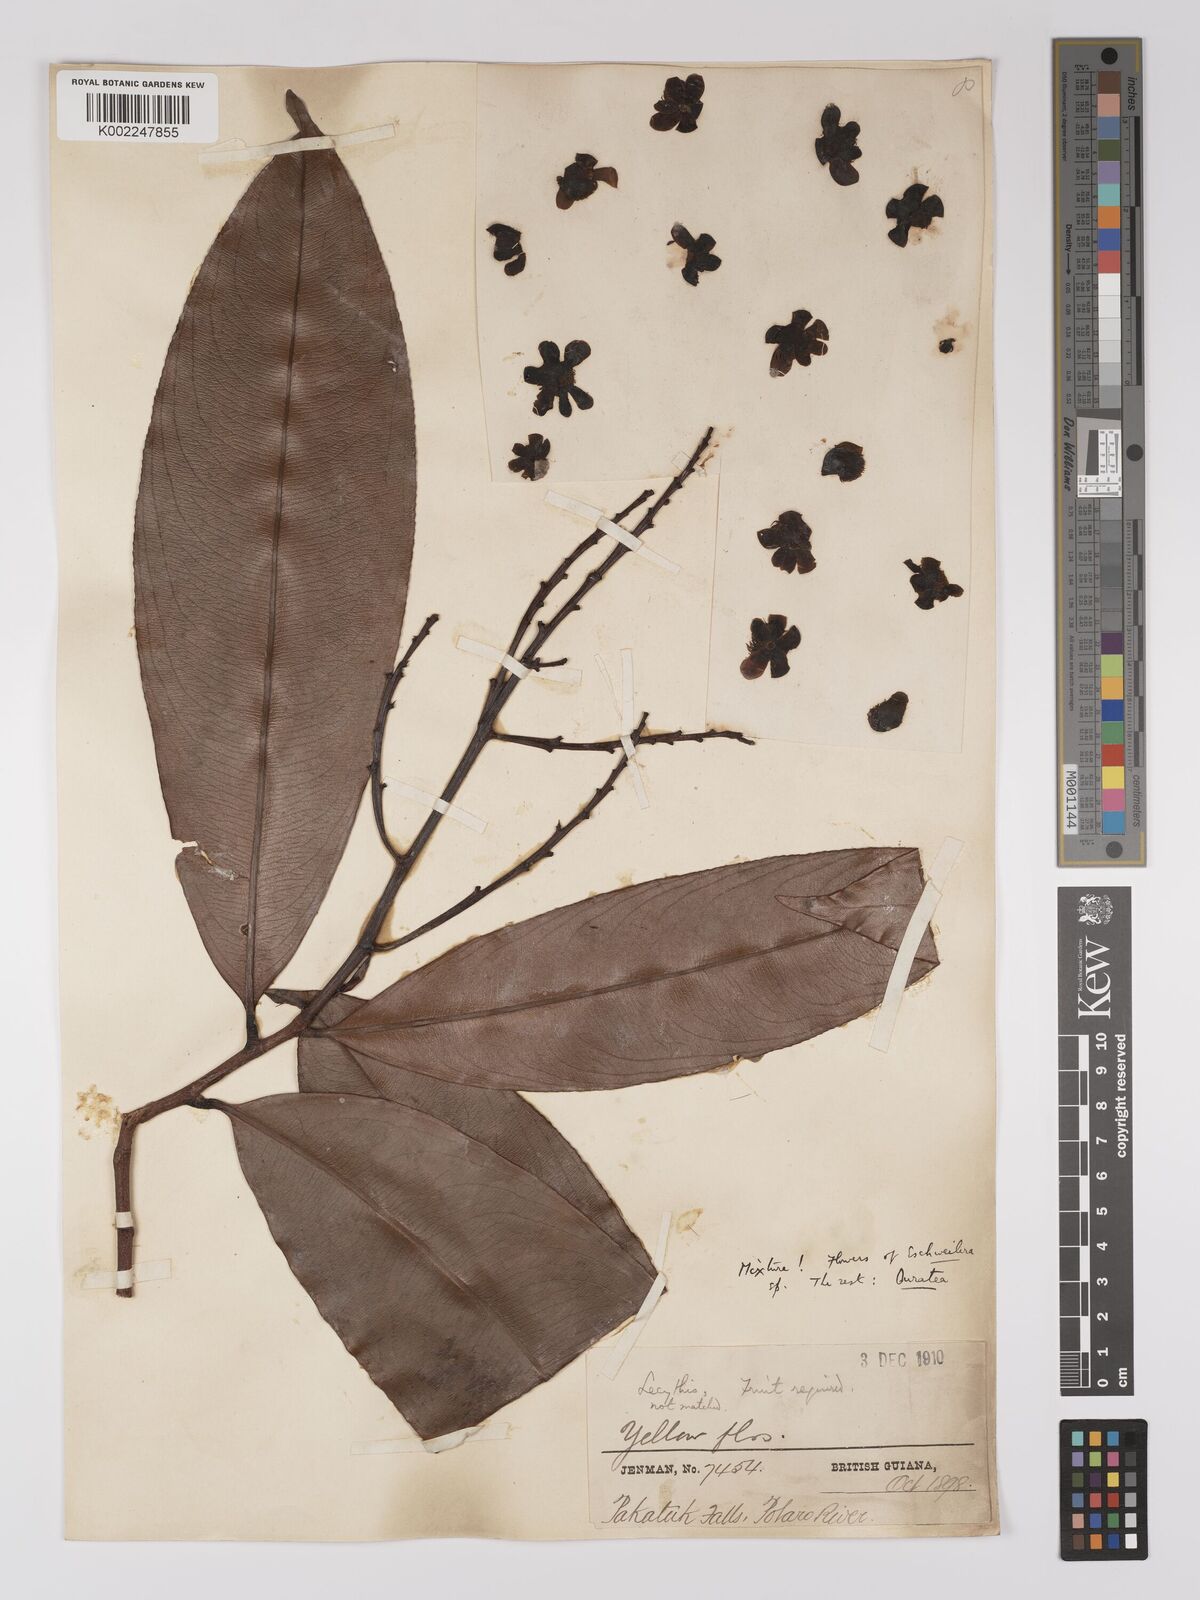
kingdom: Plantae
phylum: Tracheophyta
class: Magnoliopsida
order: Malpighiales
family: Ochnaceae
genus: Ouratea
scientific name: Ouratea
